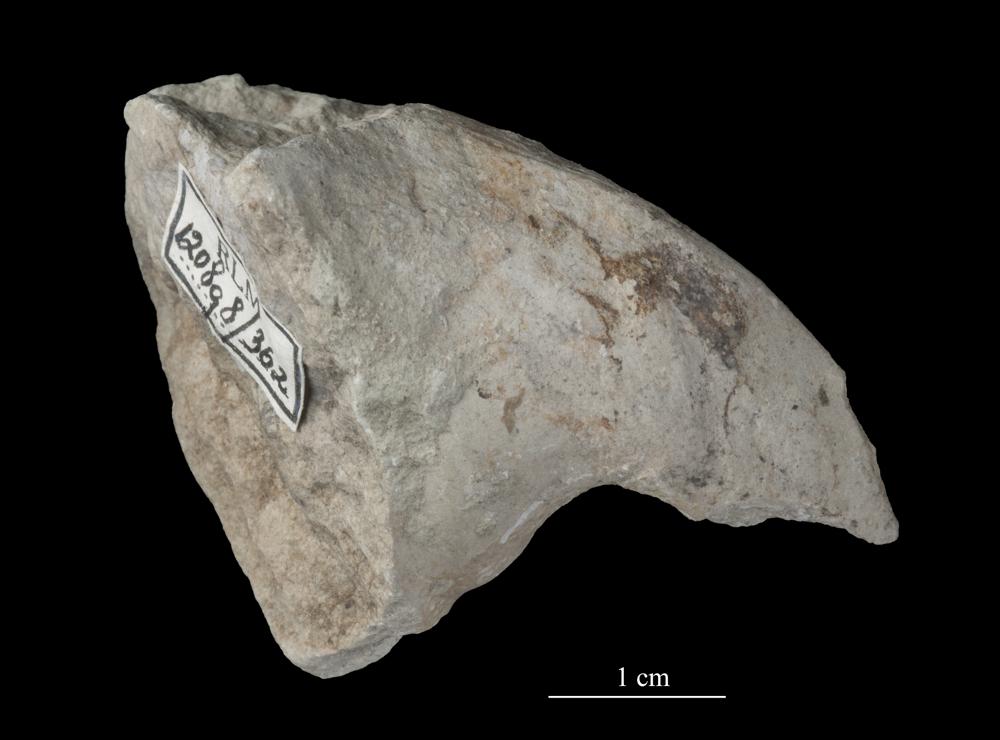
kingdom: Animalia
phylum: Mollusca
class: Gastropoda
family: Bellerophontidae
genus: Bellerophon
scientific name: Bellerophon
